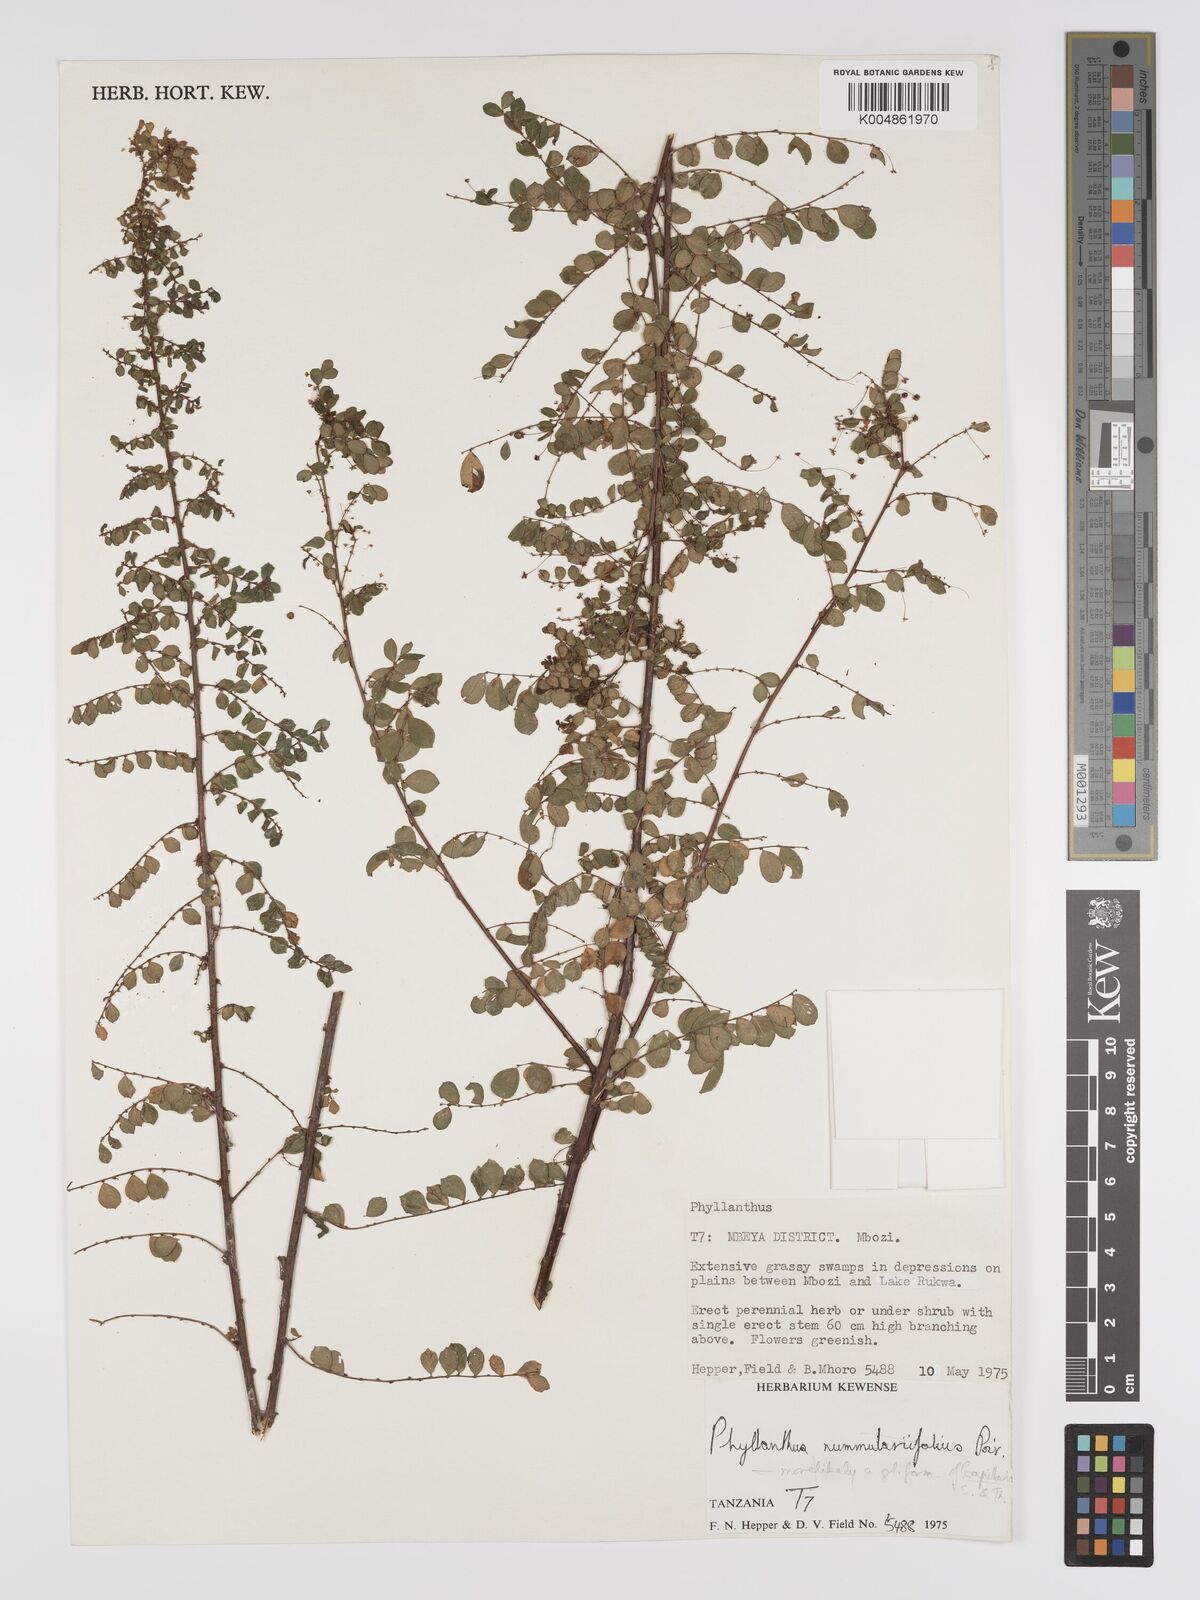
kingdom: Plantae
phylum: Tracheophyta
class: Magnoliopsida
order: Malpighiales
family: Phyllanthaceae
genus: Phyllanthus
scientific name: Phyllanthus nummulariifolius
